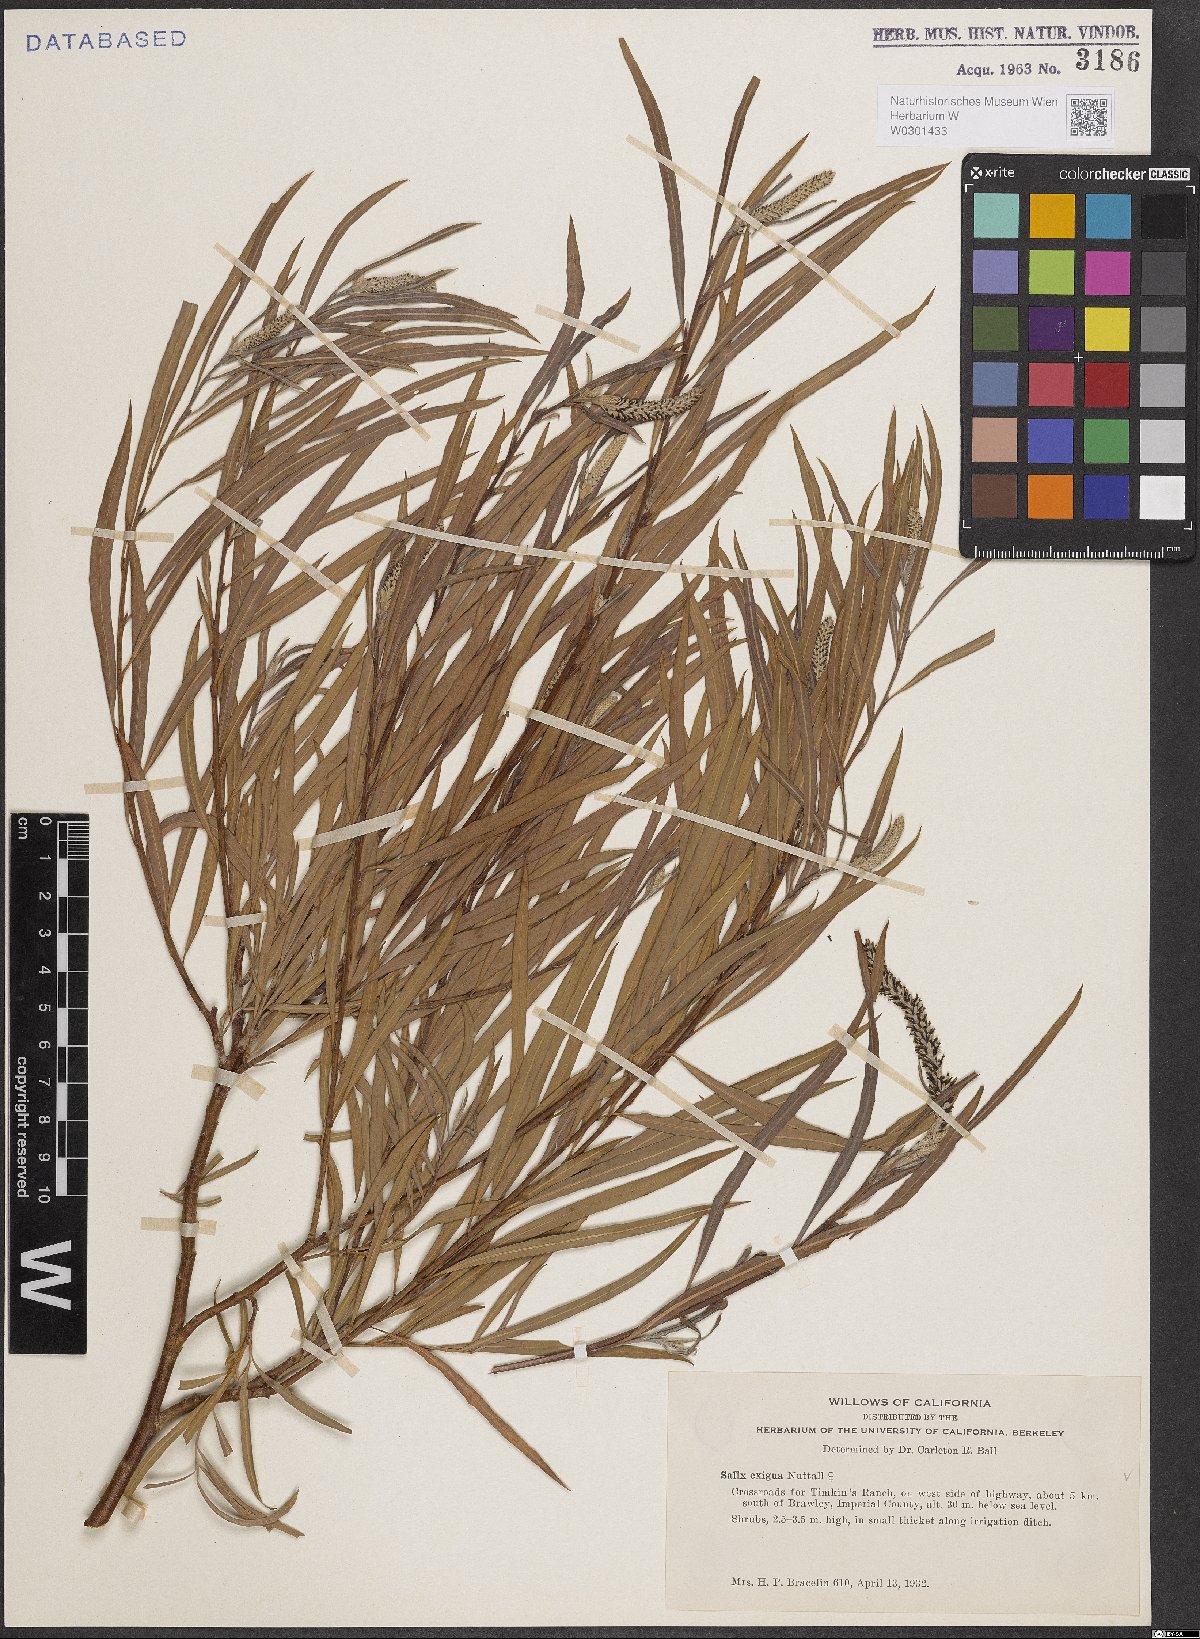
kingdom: Plantae
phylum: Tracheophyta
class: Magnoliopsida
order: Malpighiales
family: Salicaceae
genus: Salix
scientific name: Salix exigua
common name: Coyote willow
